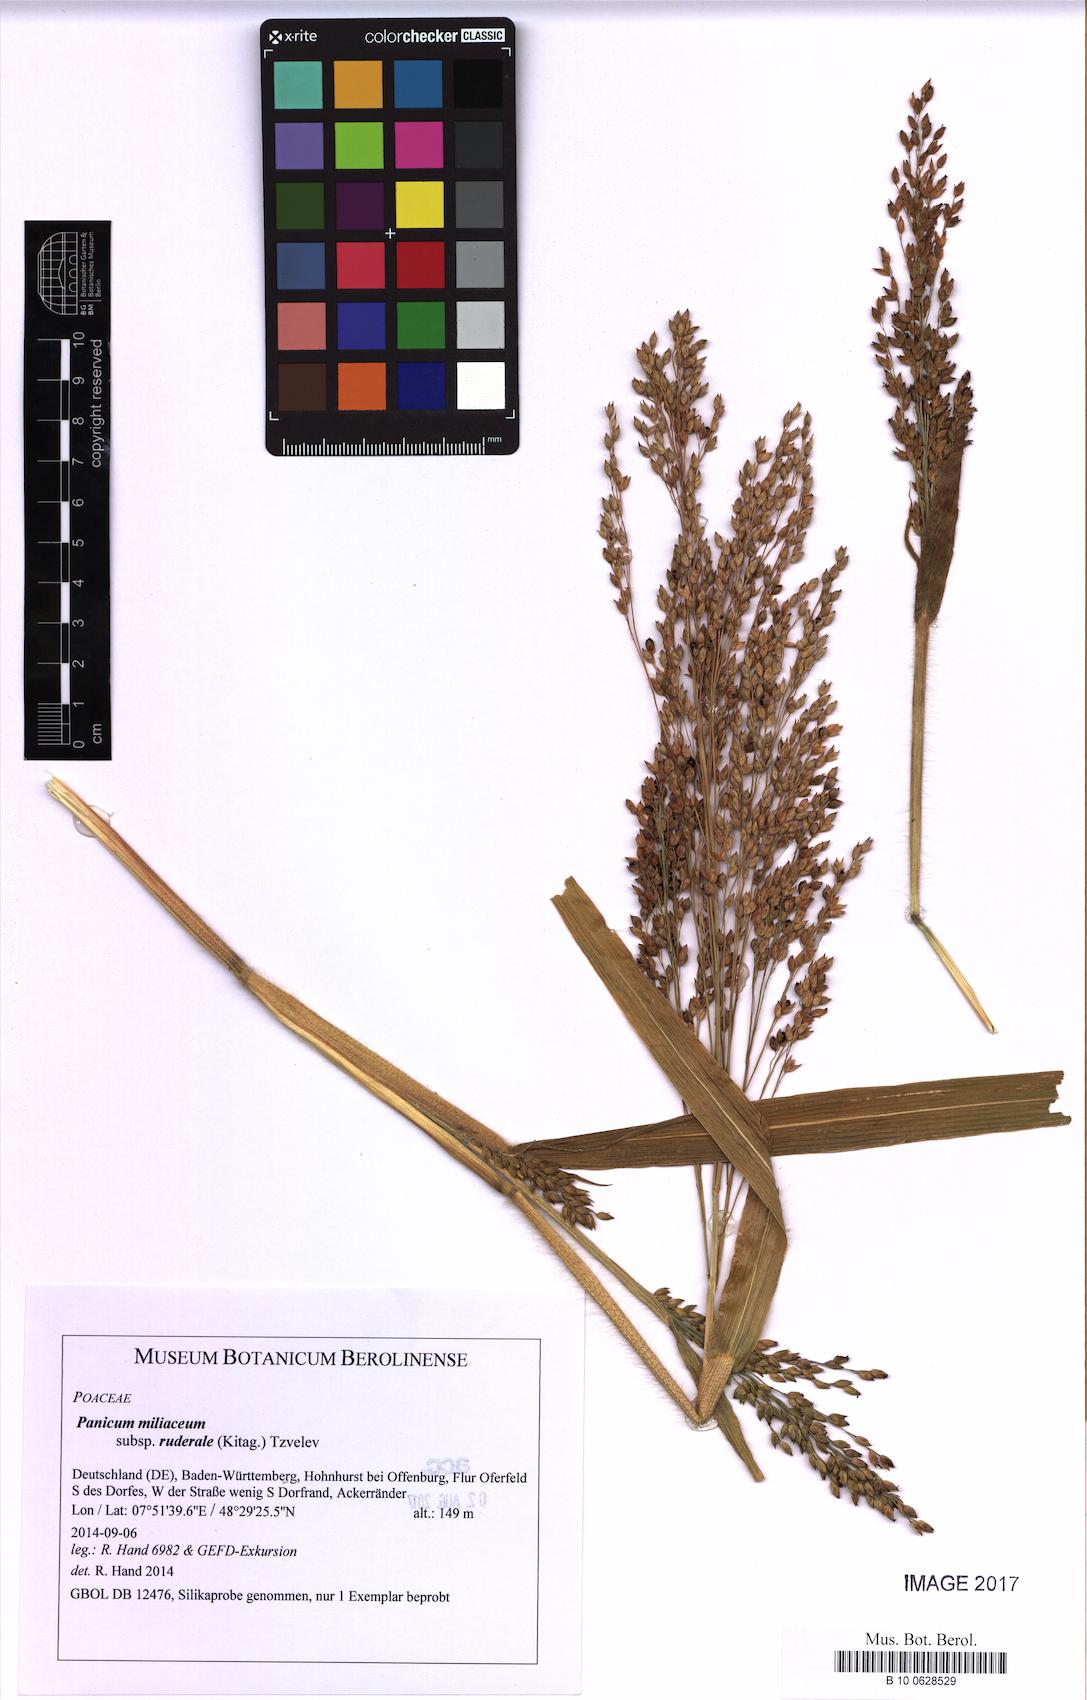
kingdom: Plantae
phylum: Tracheophyta
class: Liliopsida
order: Poales
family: Poaceae
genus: Panicum
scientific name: Panicum miliaceum
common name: Common millet
